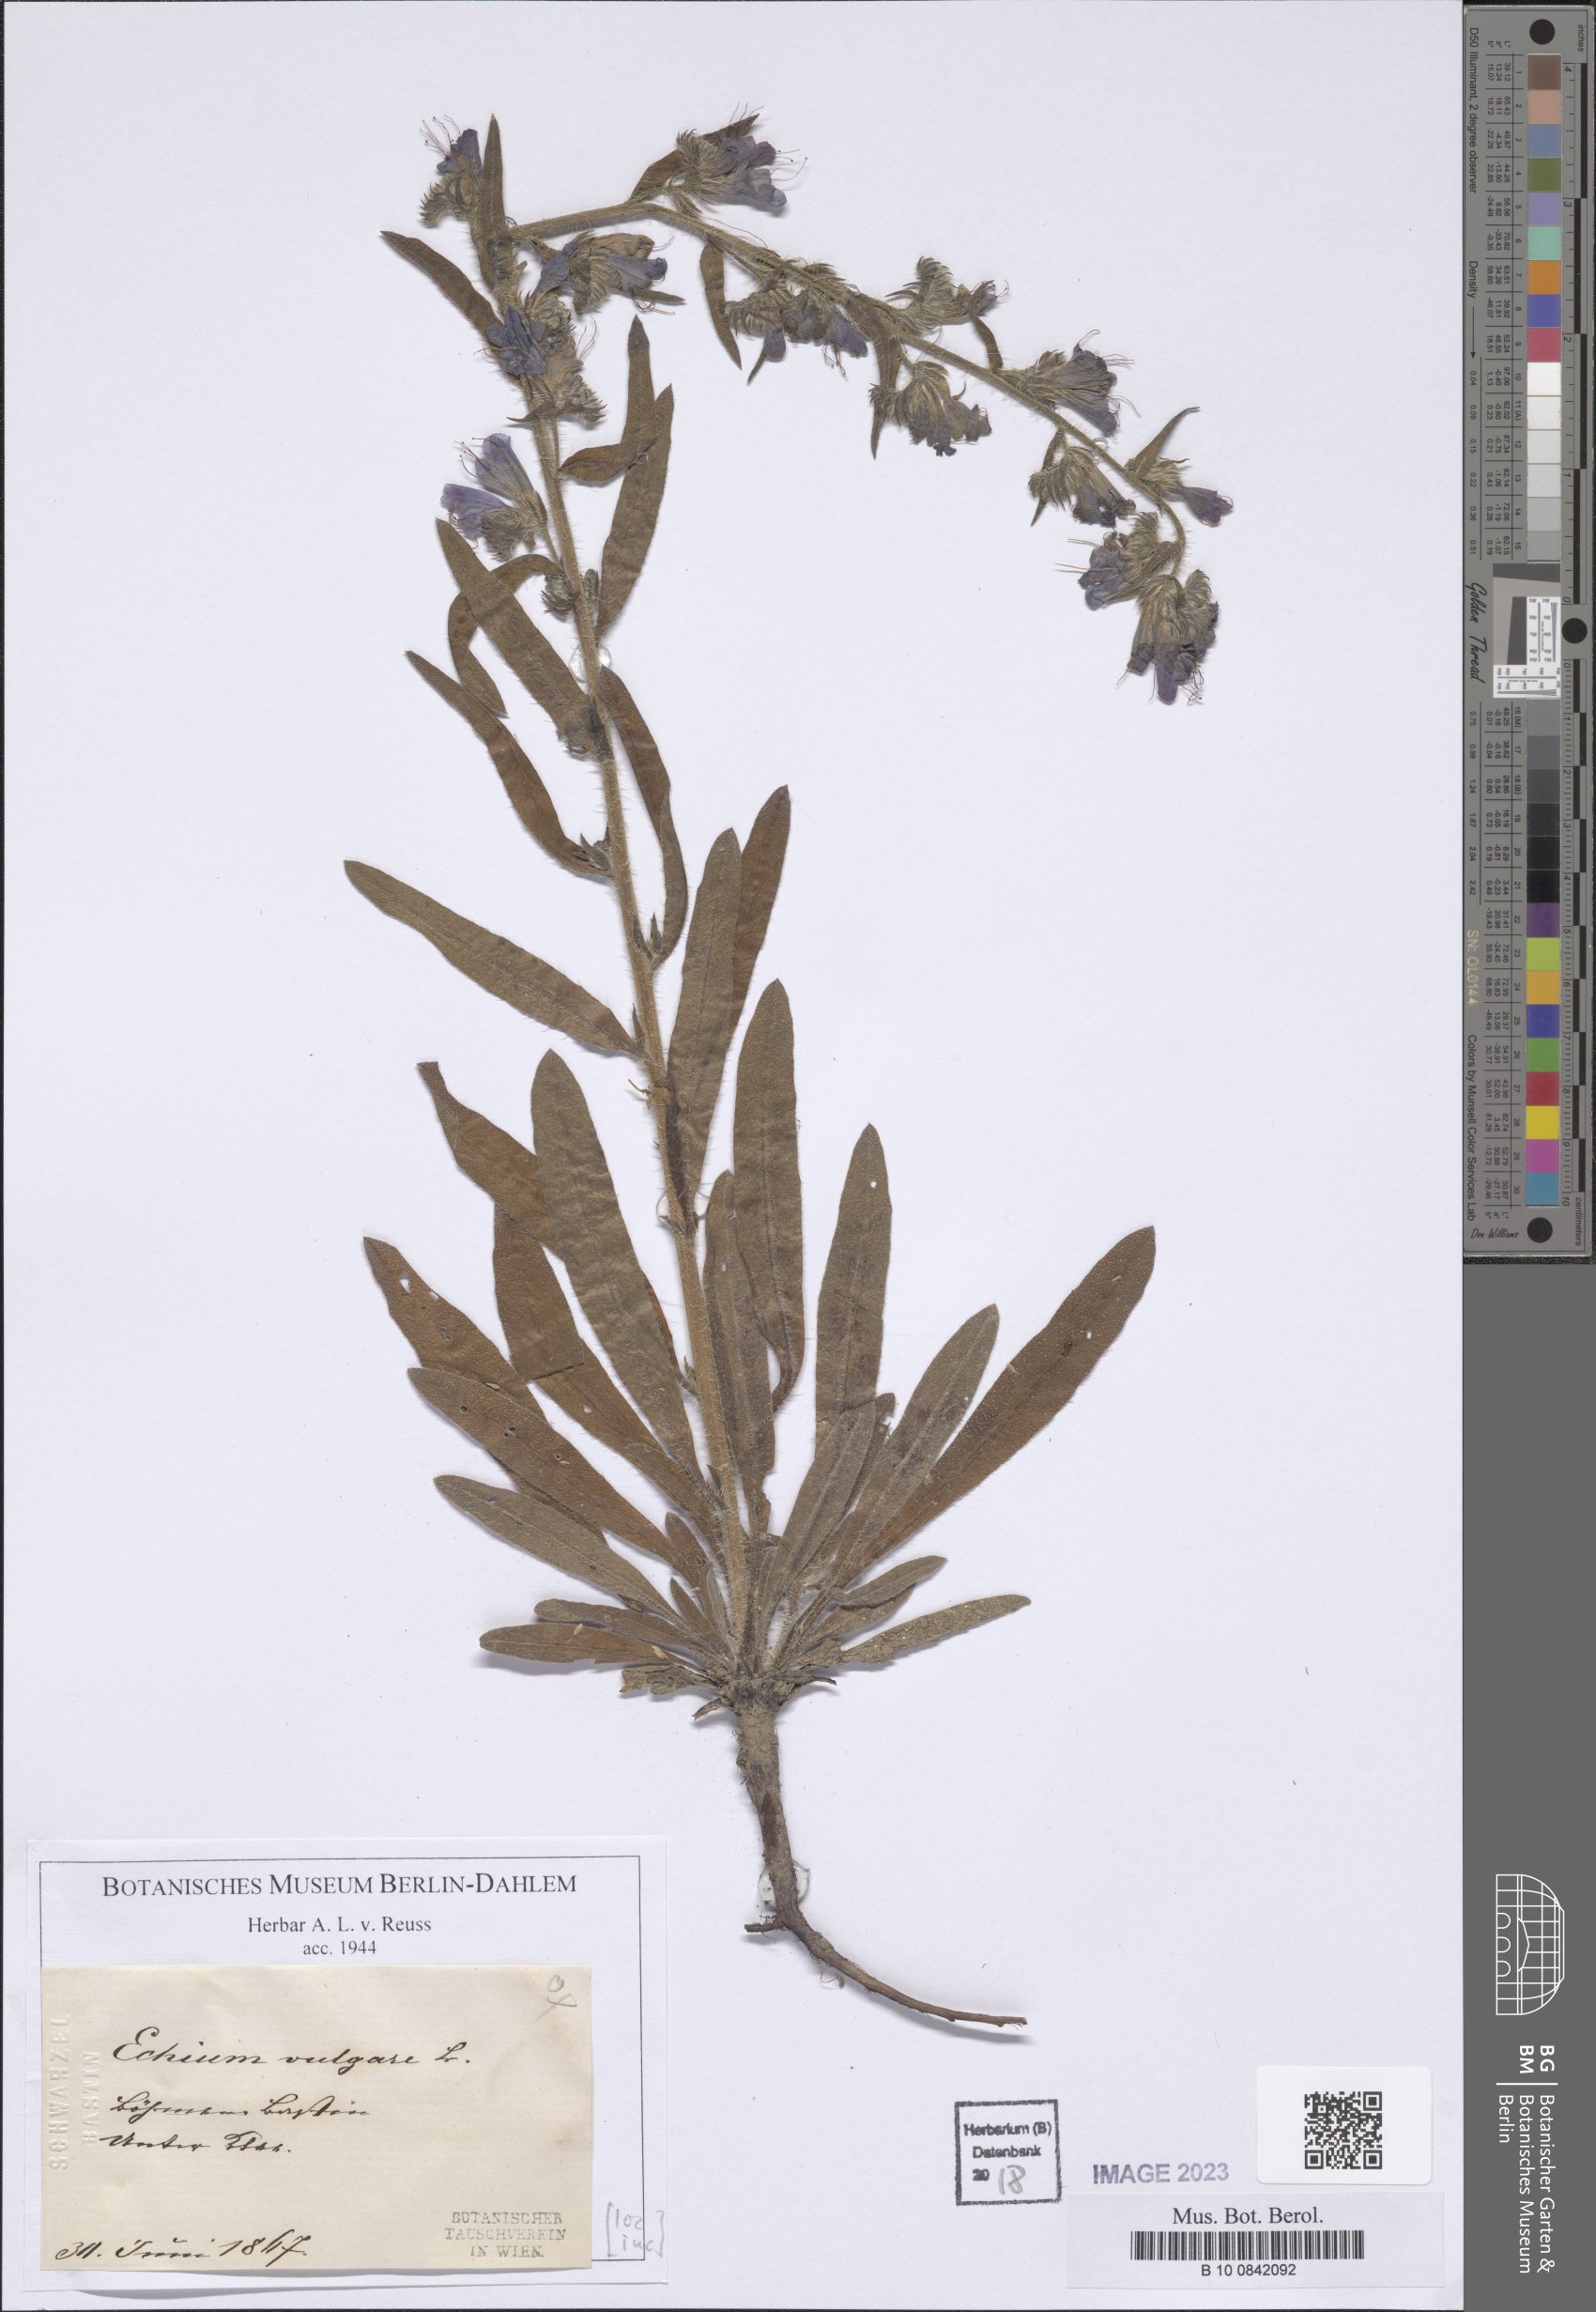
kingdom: Plantae
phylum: Tracheophyta
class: Magnoliopsida
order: Boraginales
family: Boraginaceae
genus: Echium
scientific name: Echium vulgare
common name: Common viper's bugloss
